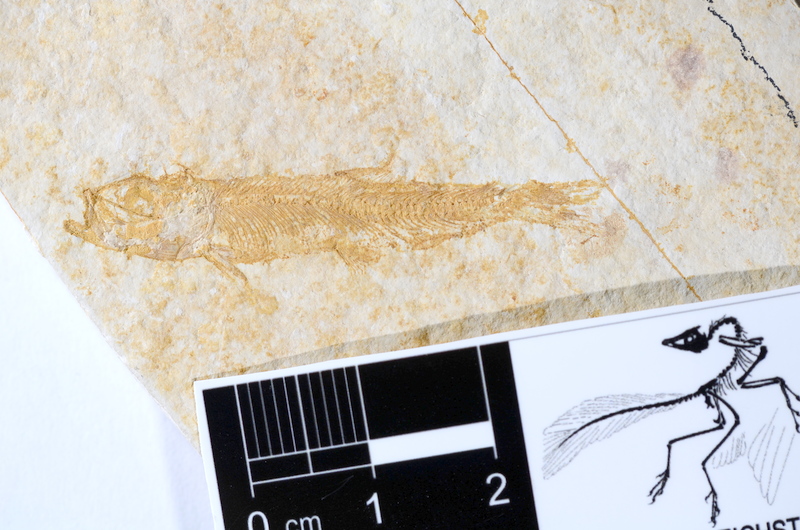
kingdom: Animalia
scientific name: Animalia
